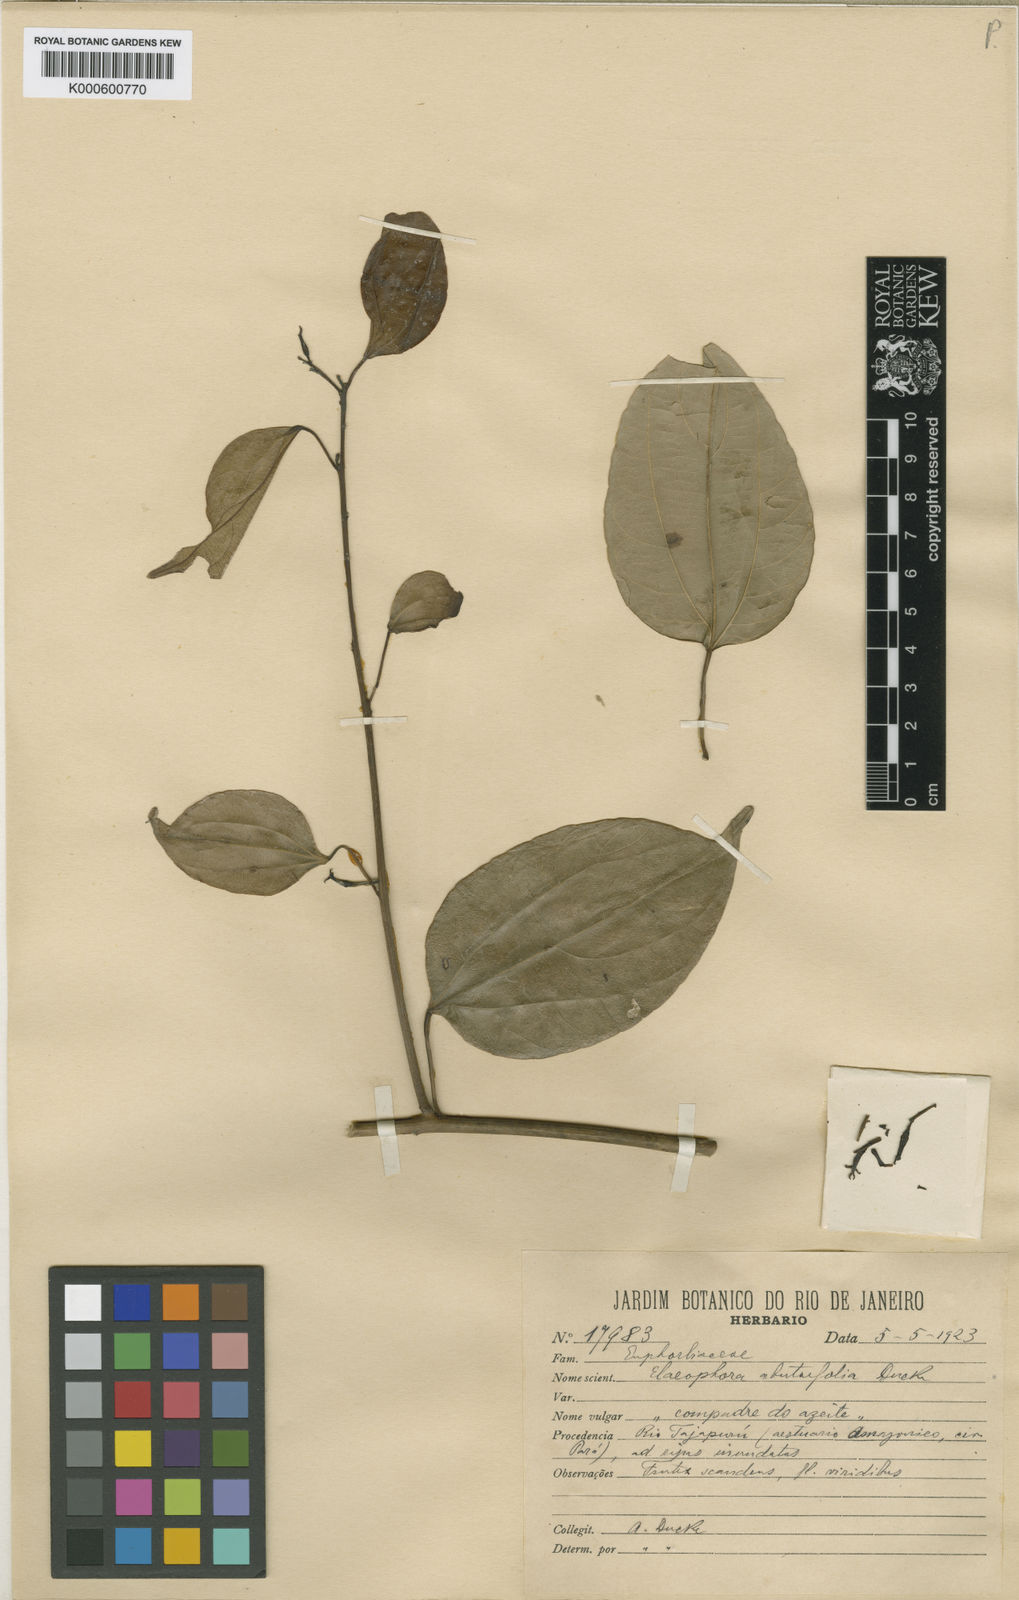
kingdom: Plantae
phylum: Tracheophyta
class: Magnoliopsida
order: Malpighiales
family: Euphorbiaceae
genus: Plukenetia
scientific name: Plukenetia polyadenia
